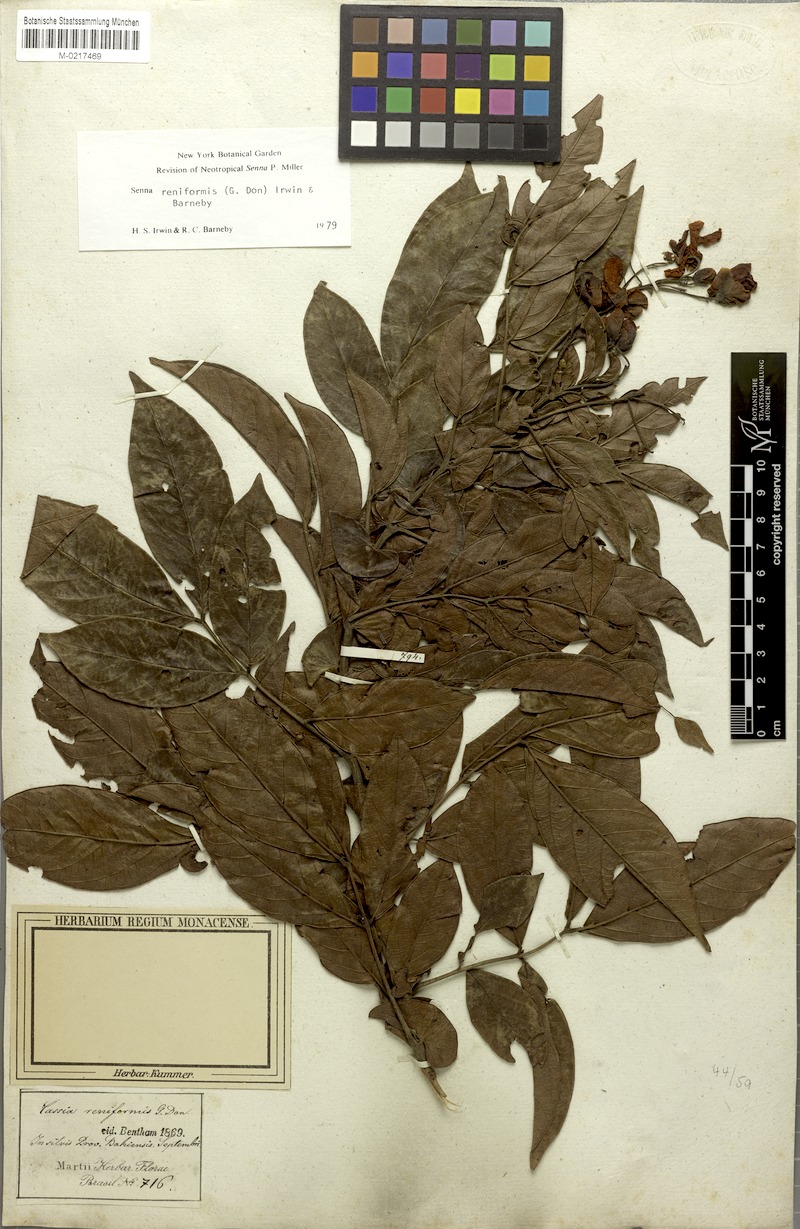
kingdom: Plantae
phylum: Tracheophyta
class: Magnoliopsida
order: Fabales
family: Fabaceae
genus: Senna
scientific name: Senna reniformis
